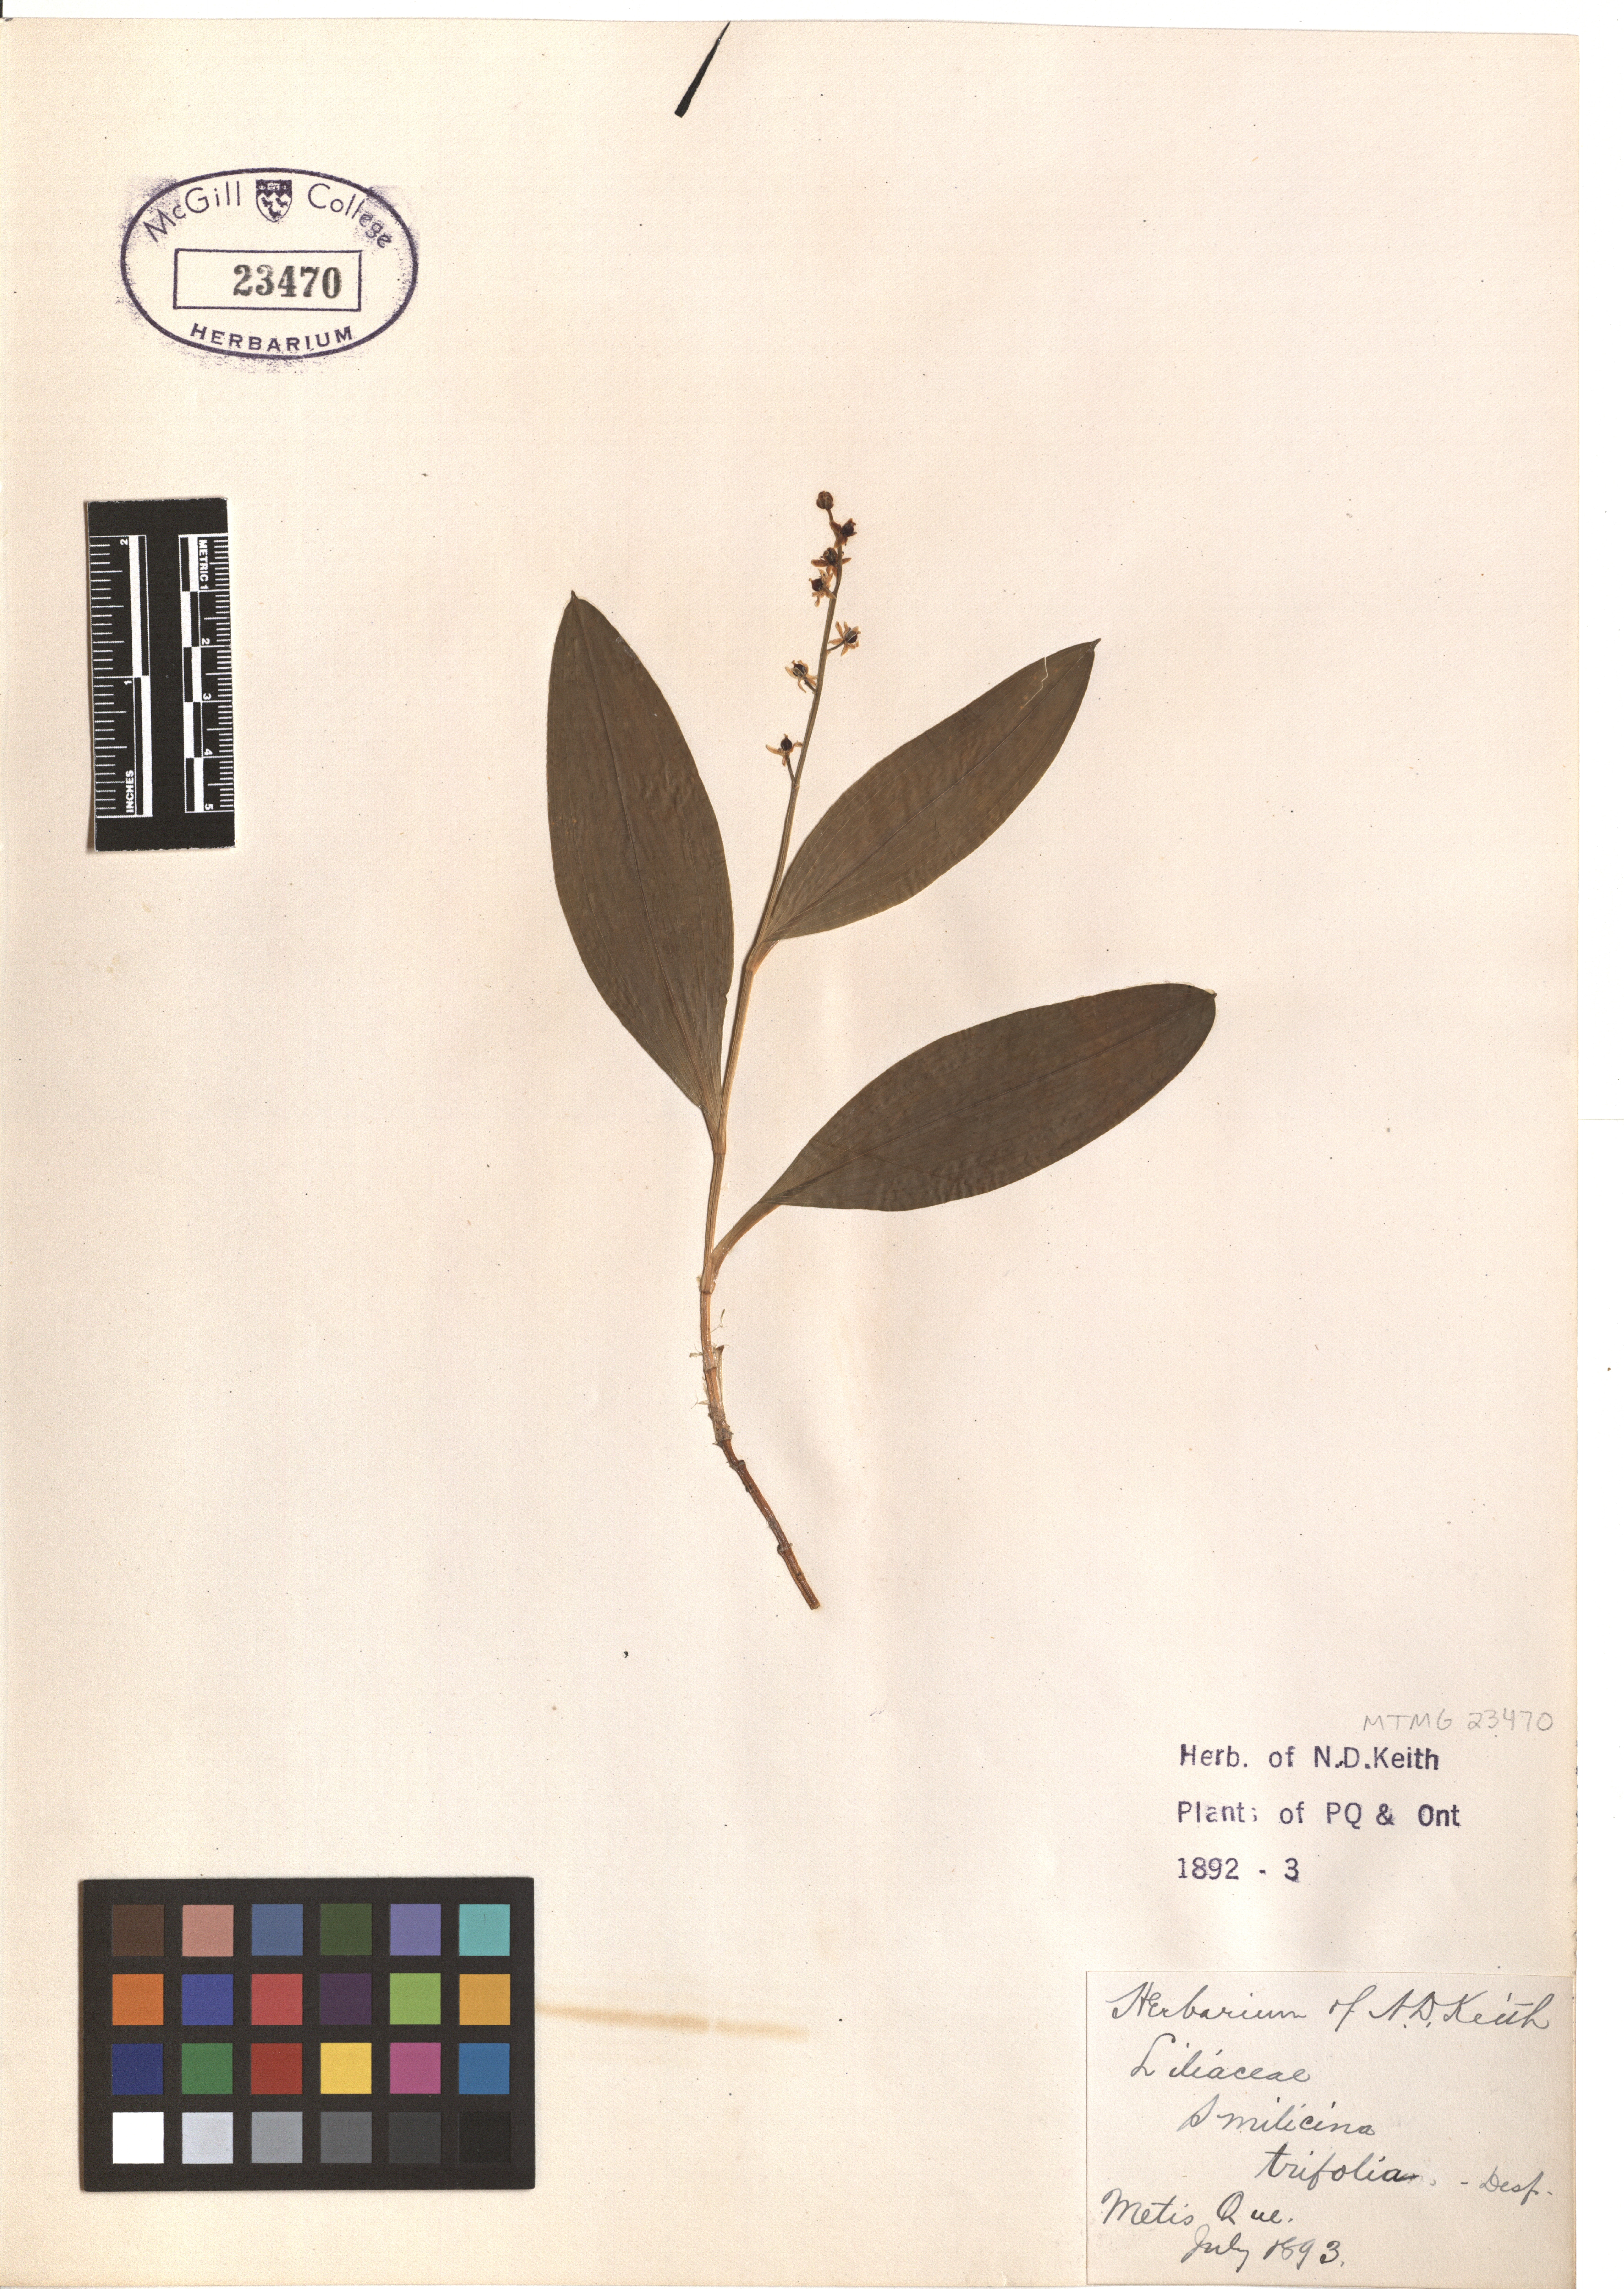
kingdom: Plantae
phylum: Tracheophyta
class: Liliopsida
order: Asparagales
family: Asparagaceae
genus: Maianthemum
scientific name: Maianthemum trifolium
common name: Swamp false solomon's seal
